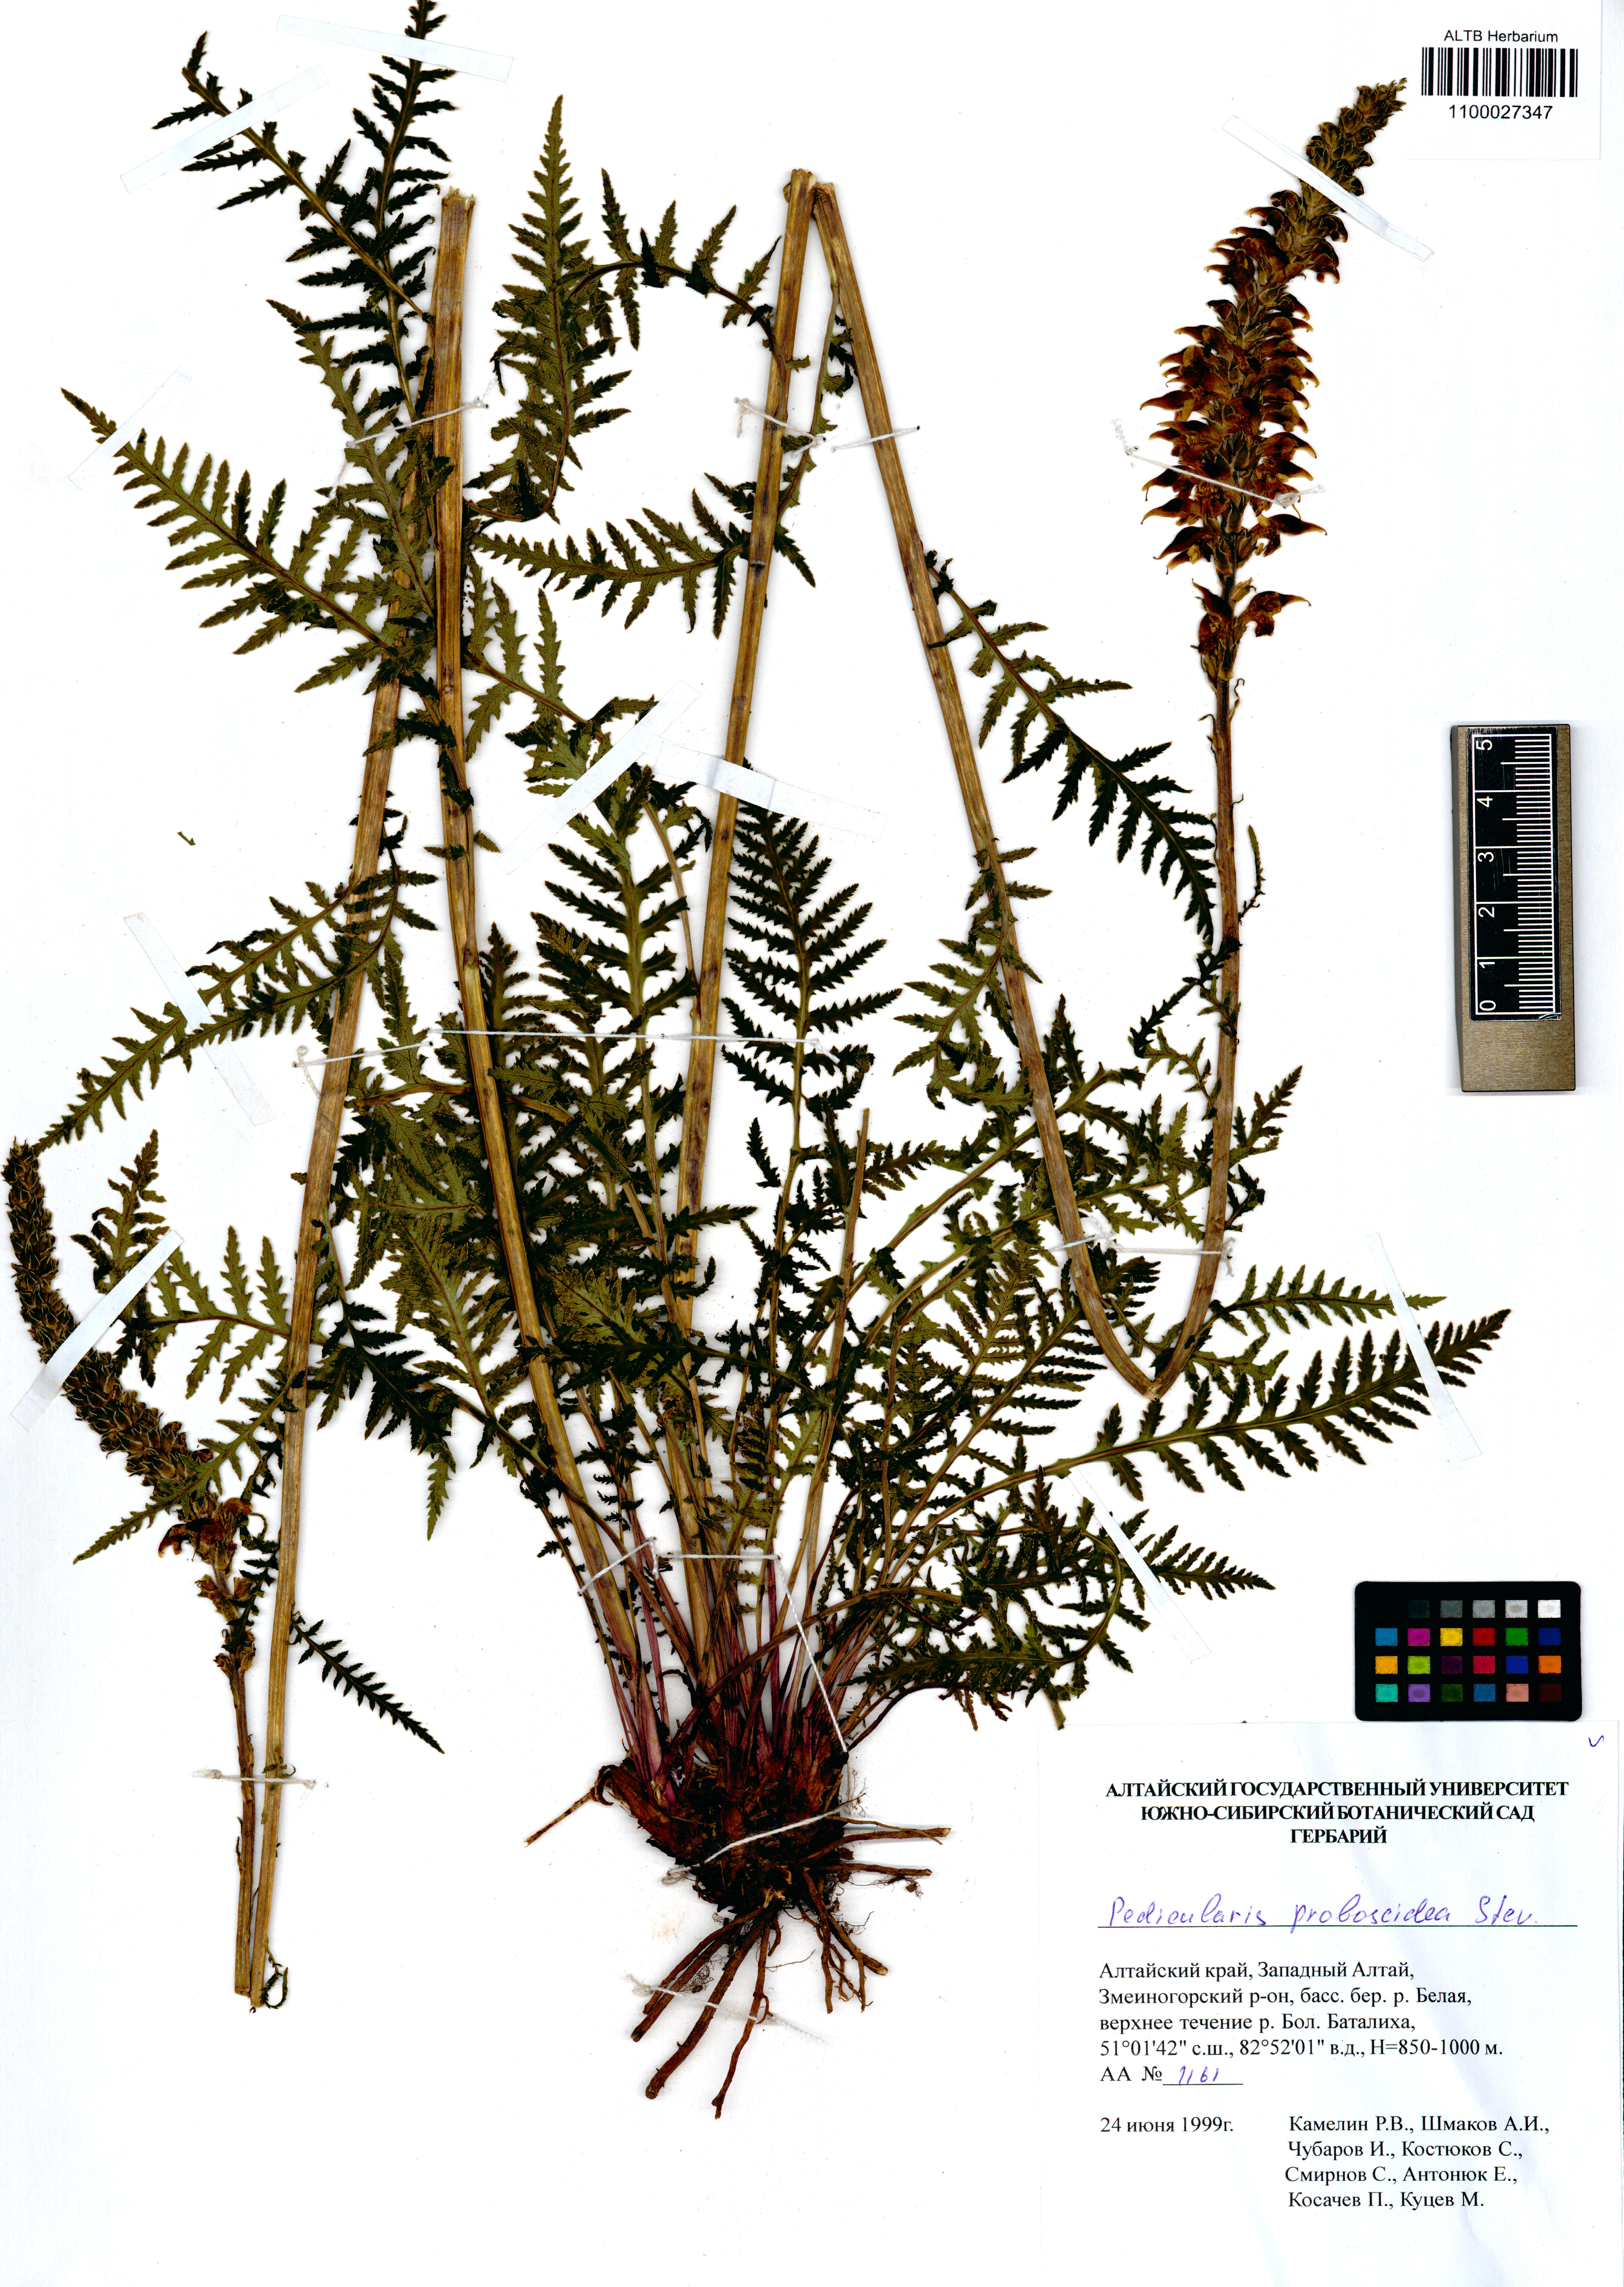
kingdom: Plantae
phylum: Tracheophyta
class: Magnoliopsida
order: Lamiales
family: Orobanchaceae
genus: Pedicularis
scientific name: Pedicularis proboscidea
